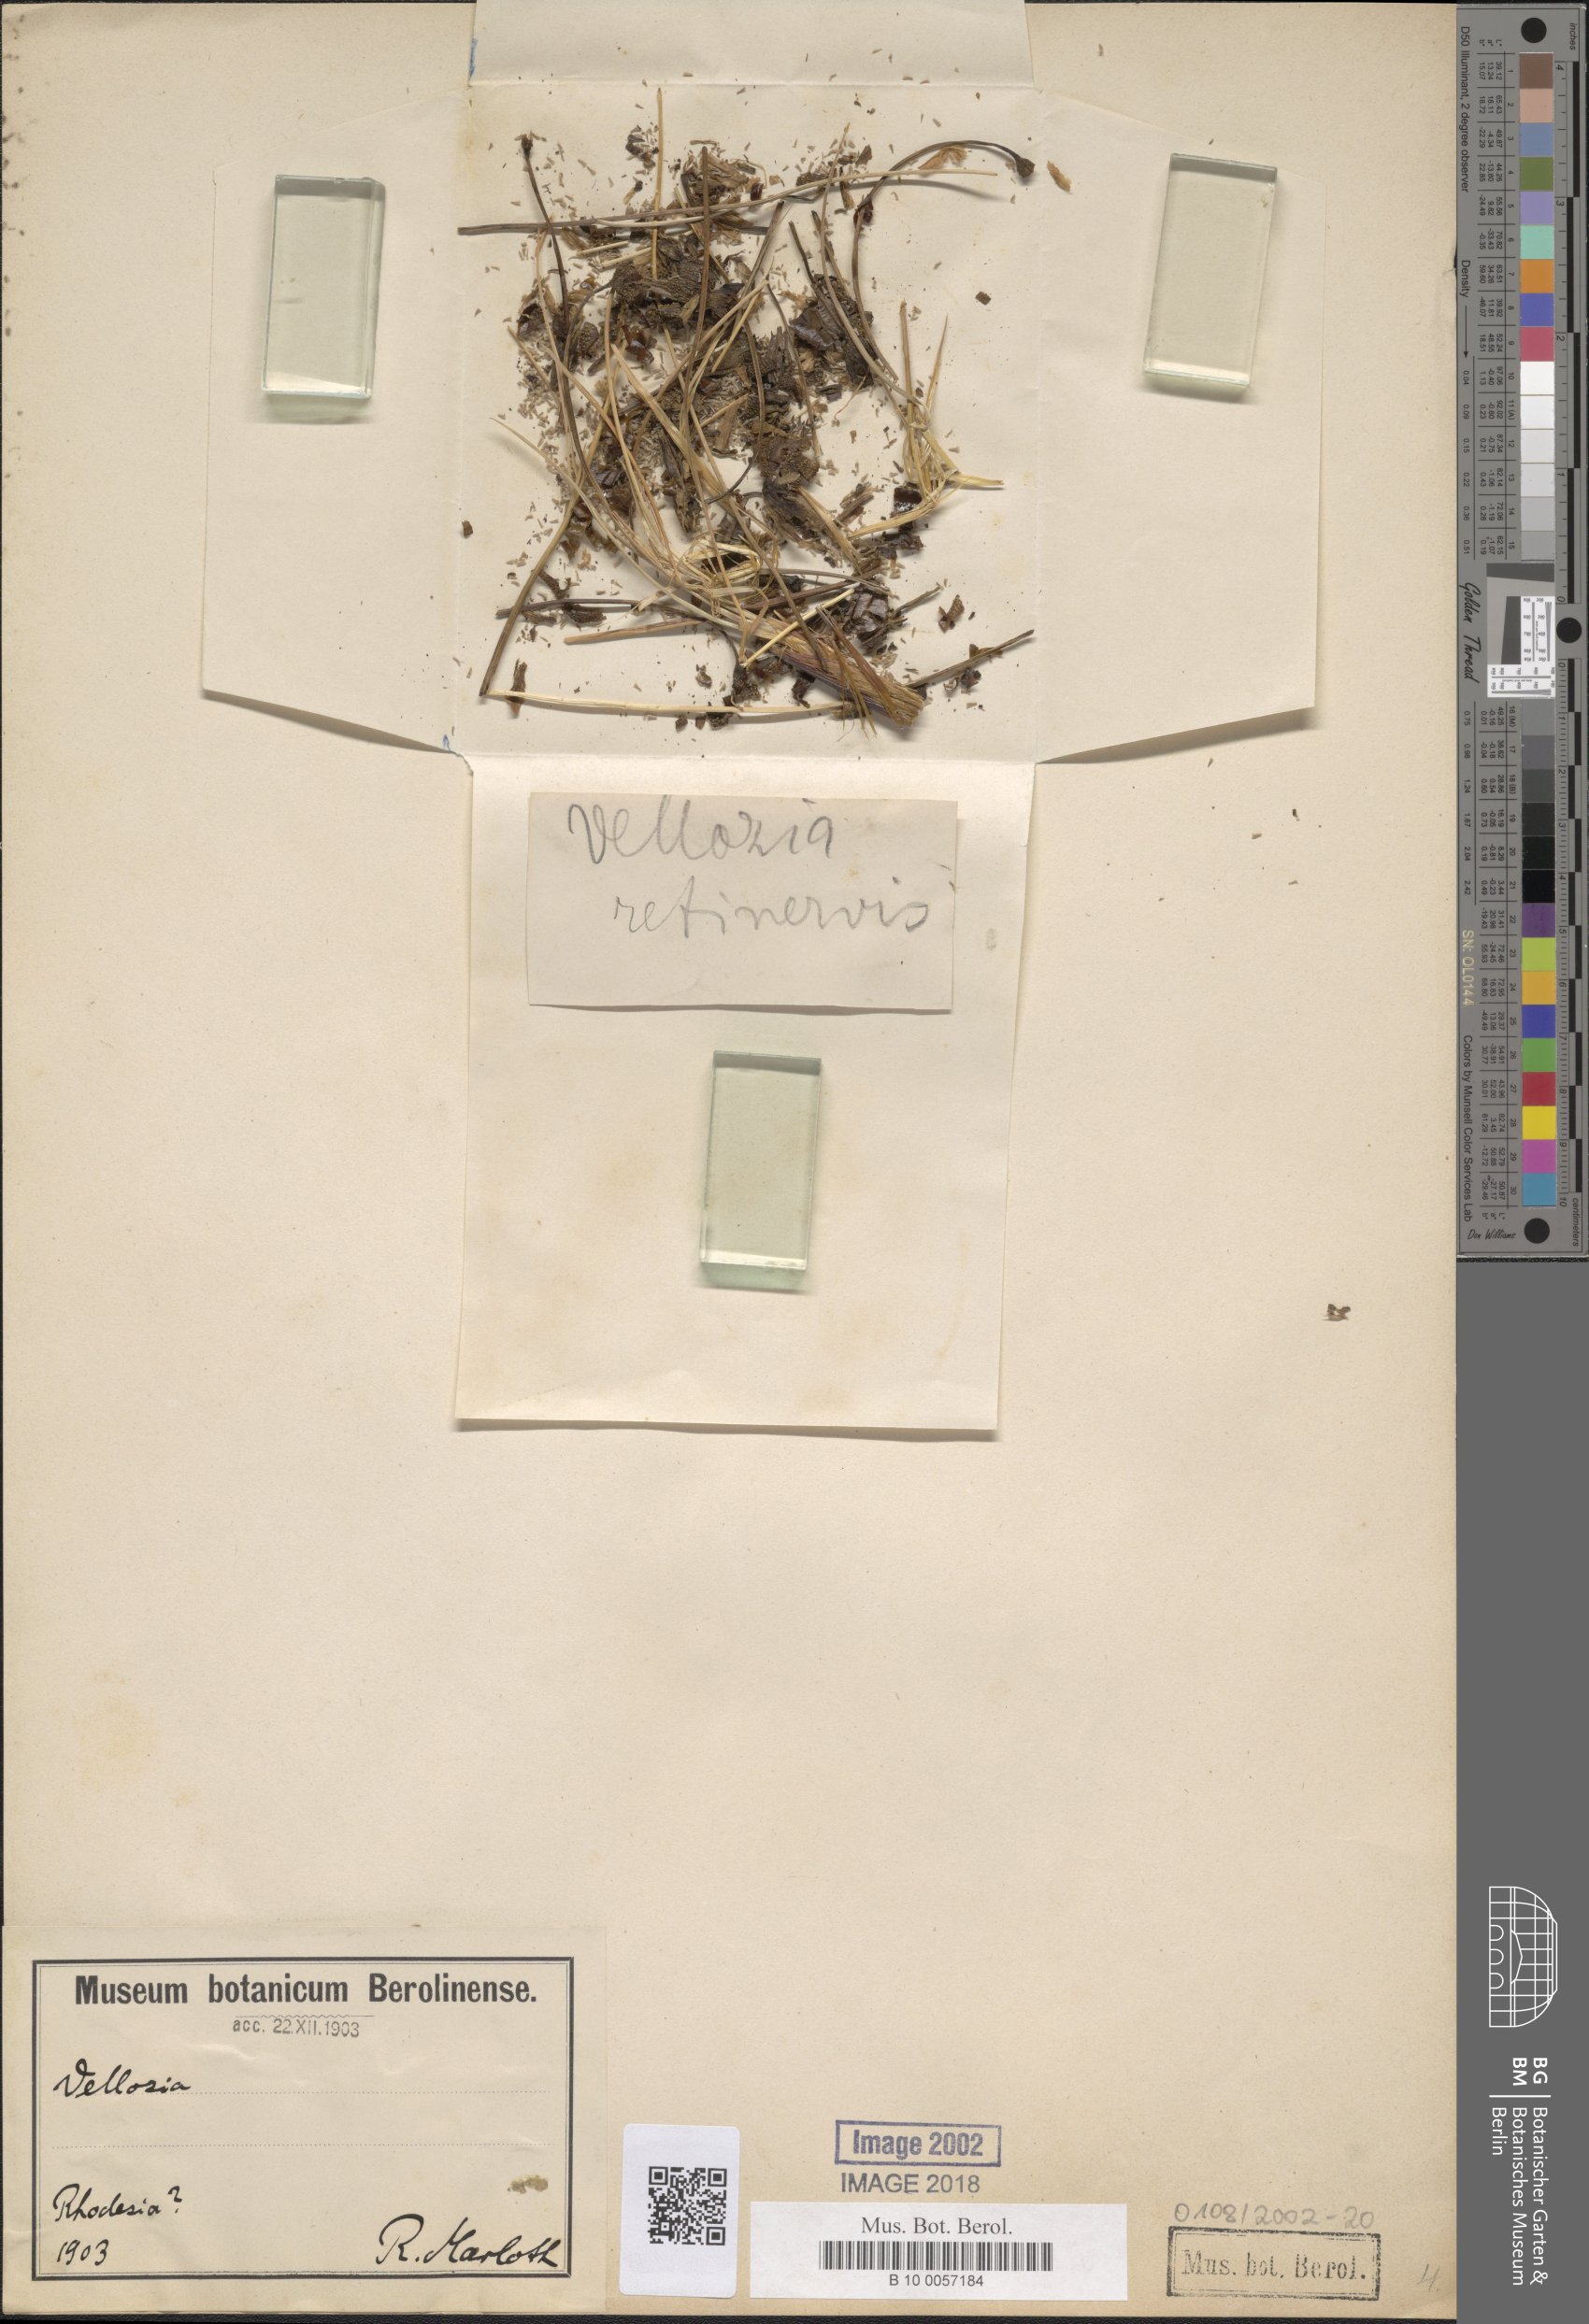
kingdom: Plantae
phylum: Tracheophyta
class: Liliopsida
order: Pandanales
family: Velloziaceae
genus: Vellozia
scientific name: Vellozia
